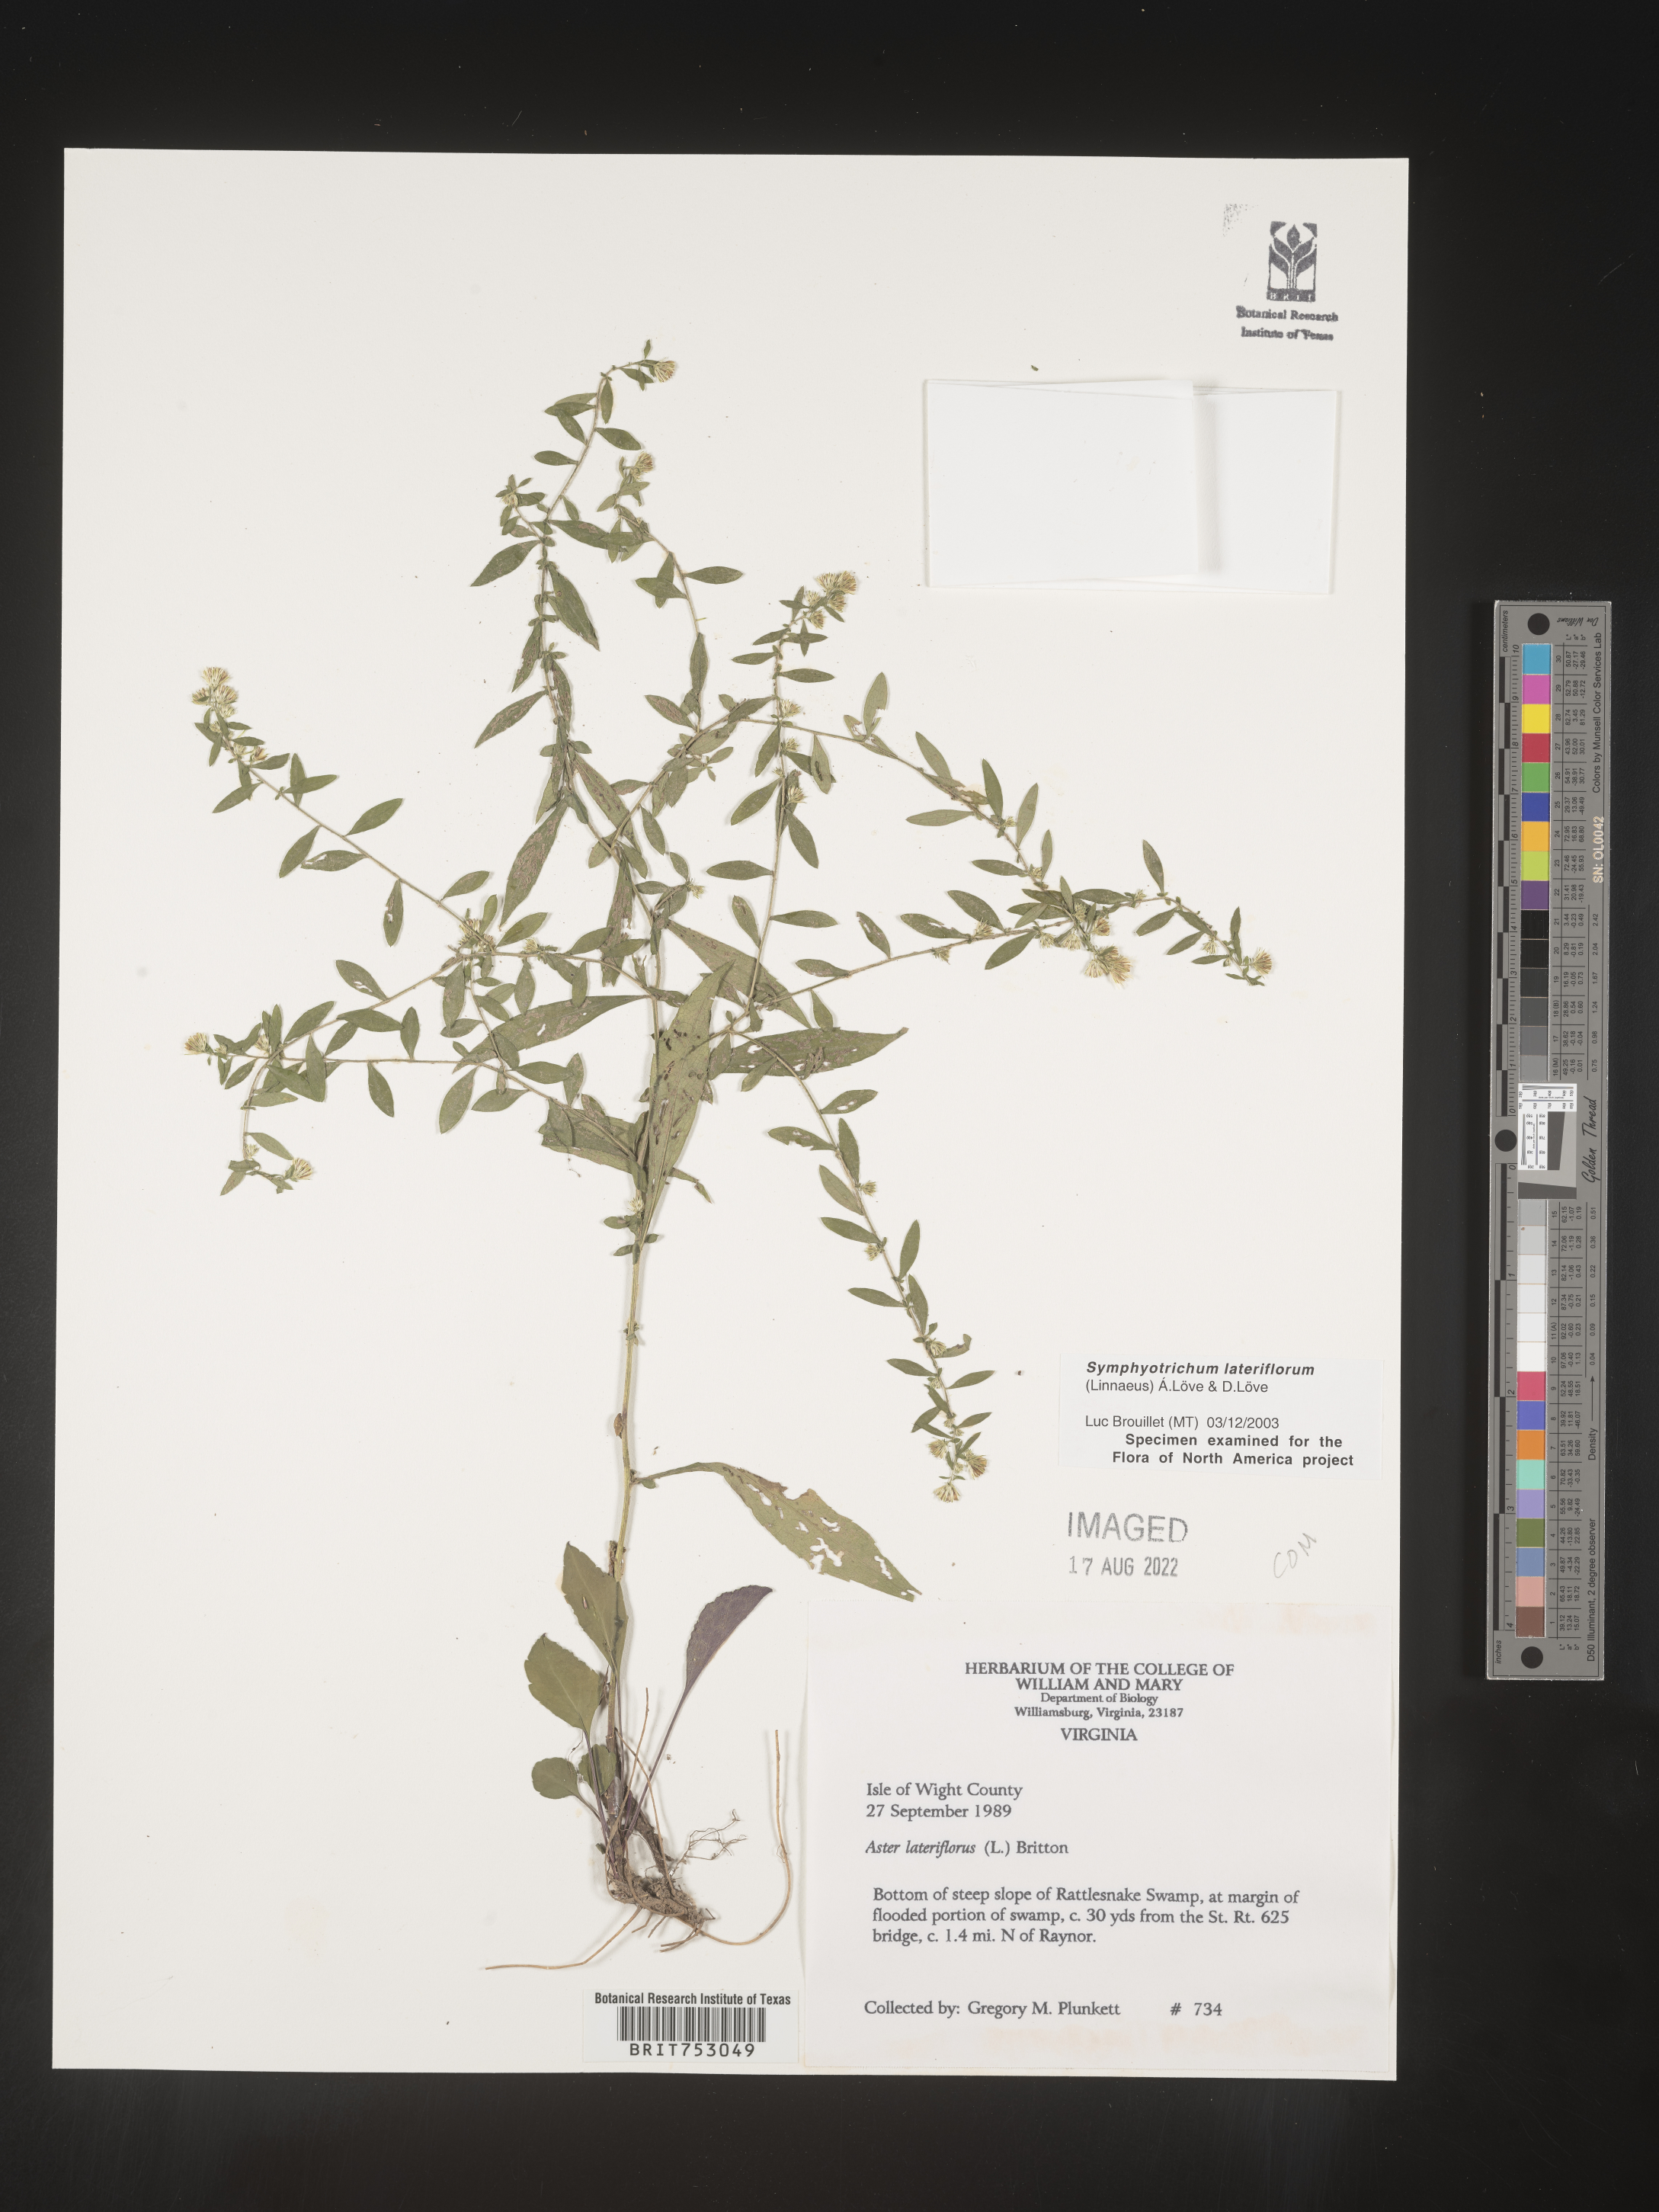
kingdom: Plantae
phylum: Tracheophyta
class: Magnoliopsida
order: Asterales
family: Asteraceae
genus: Symphyotrichum
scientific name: Symphyotrichum lateriflorum
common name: Calico aster
